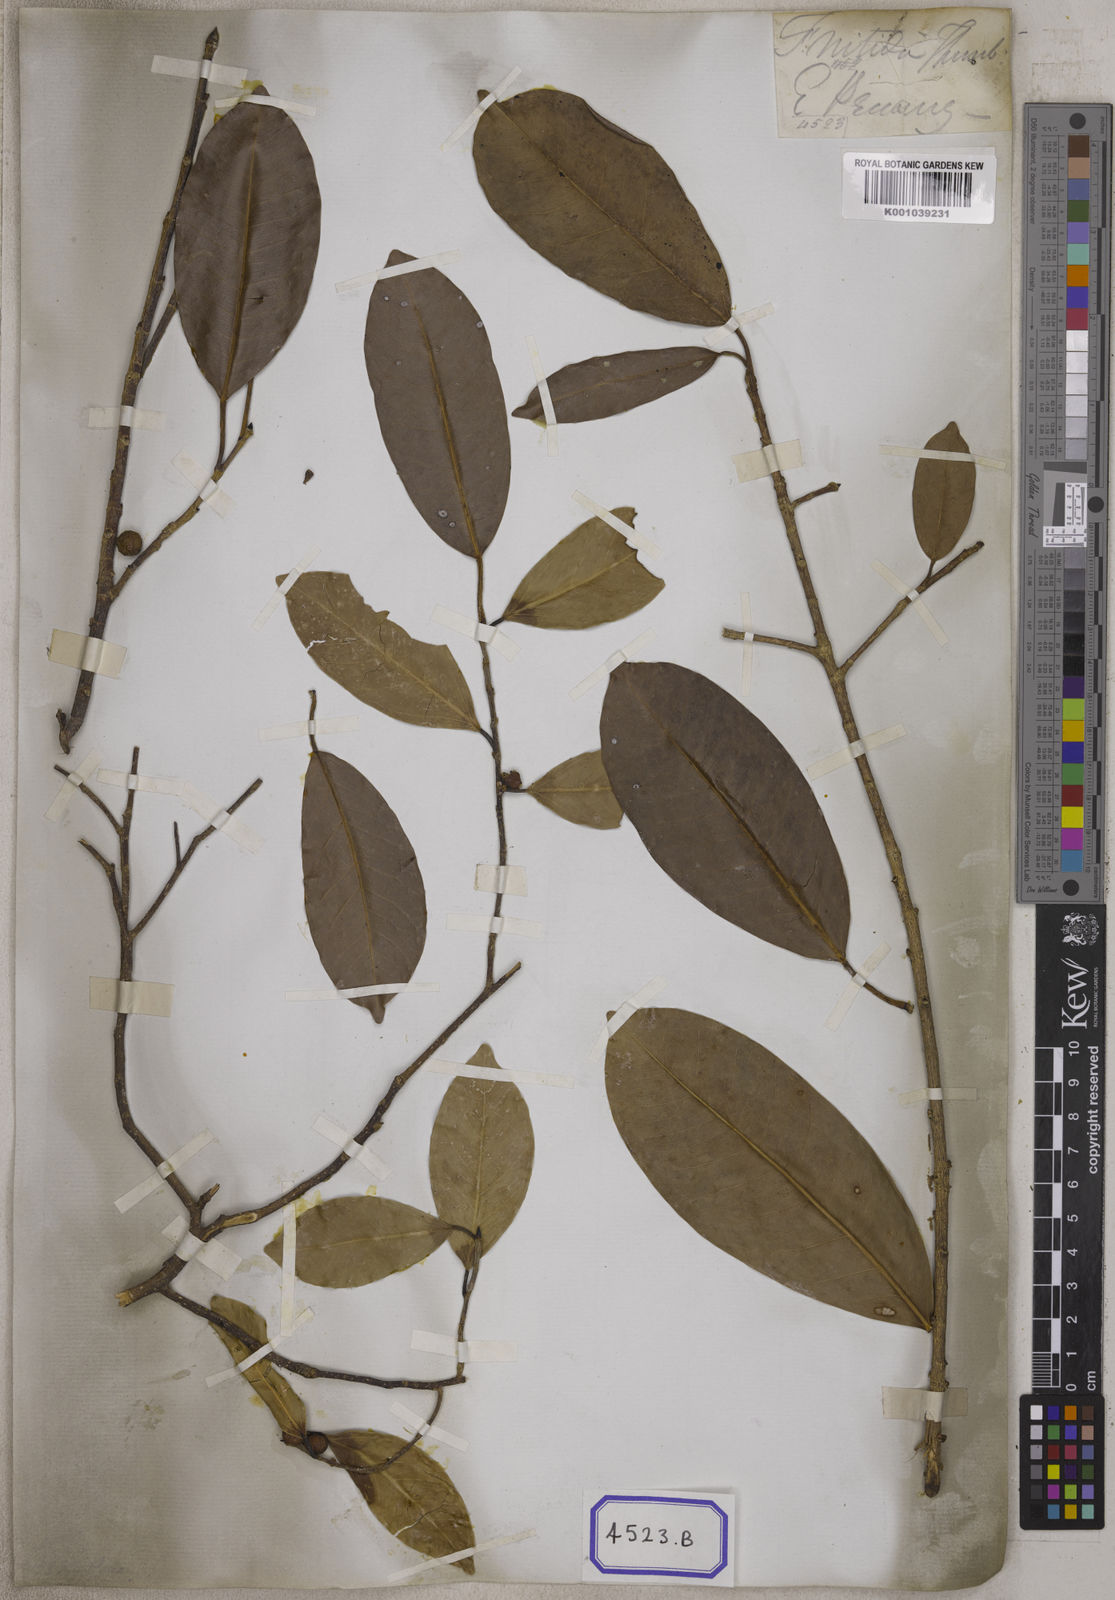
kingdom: Plantae
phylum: Tracheophyta
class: Magnoliopsida
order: Rosales
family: Moraceae
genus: Ficus
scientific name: Ficus benjamina
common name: Weeping fig
